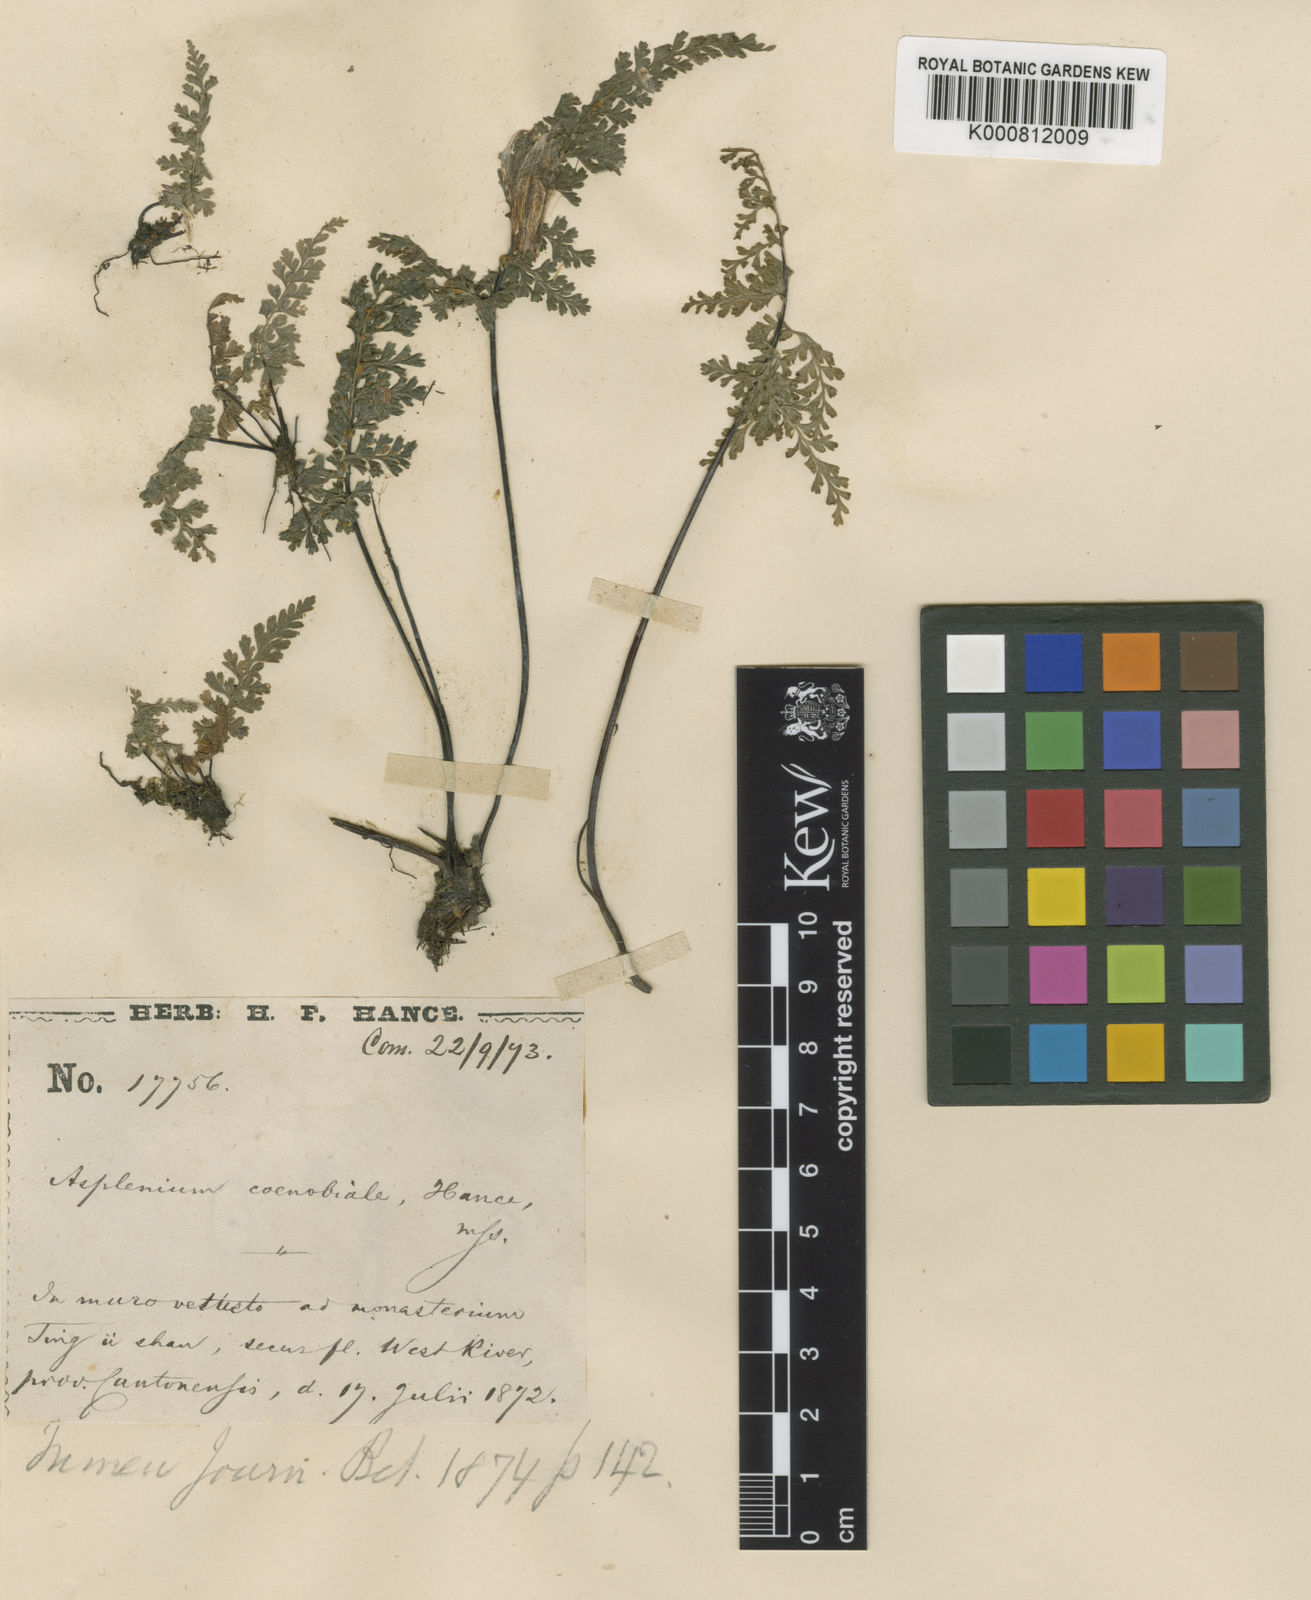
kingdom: Plantae
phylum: Tracheophyta
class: Polypodiopsida
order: Polypodiales
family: Aspleniaceae
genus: Asplenium
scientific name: Asplenium coenobiale
